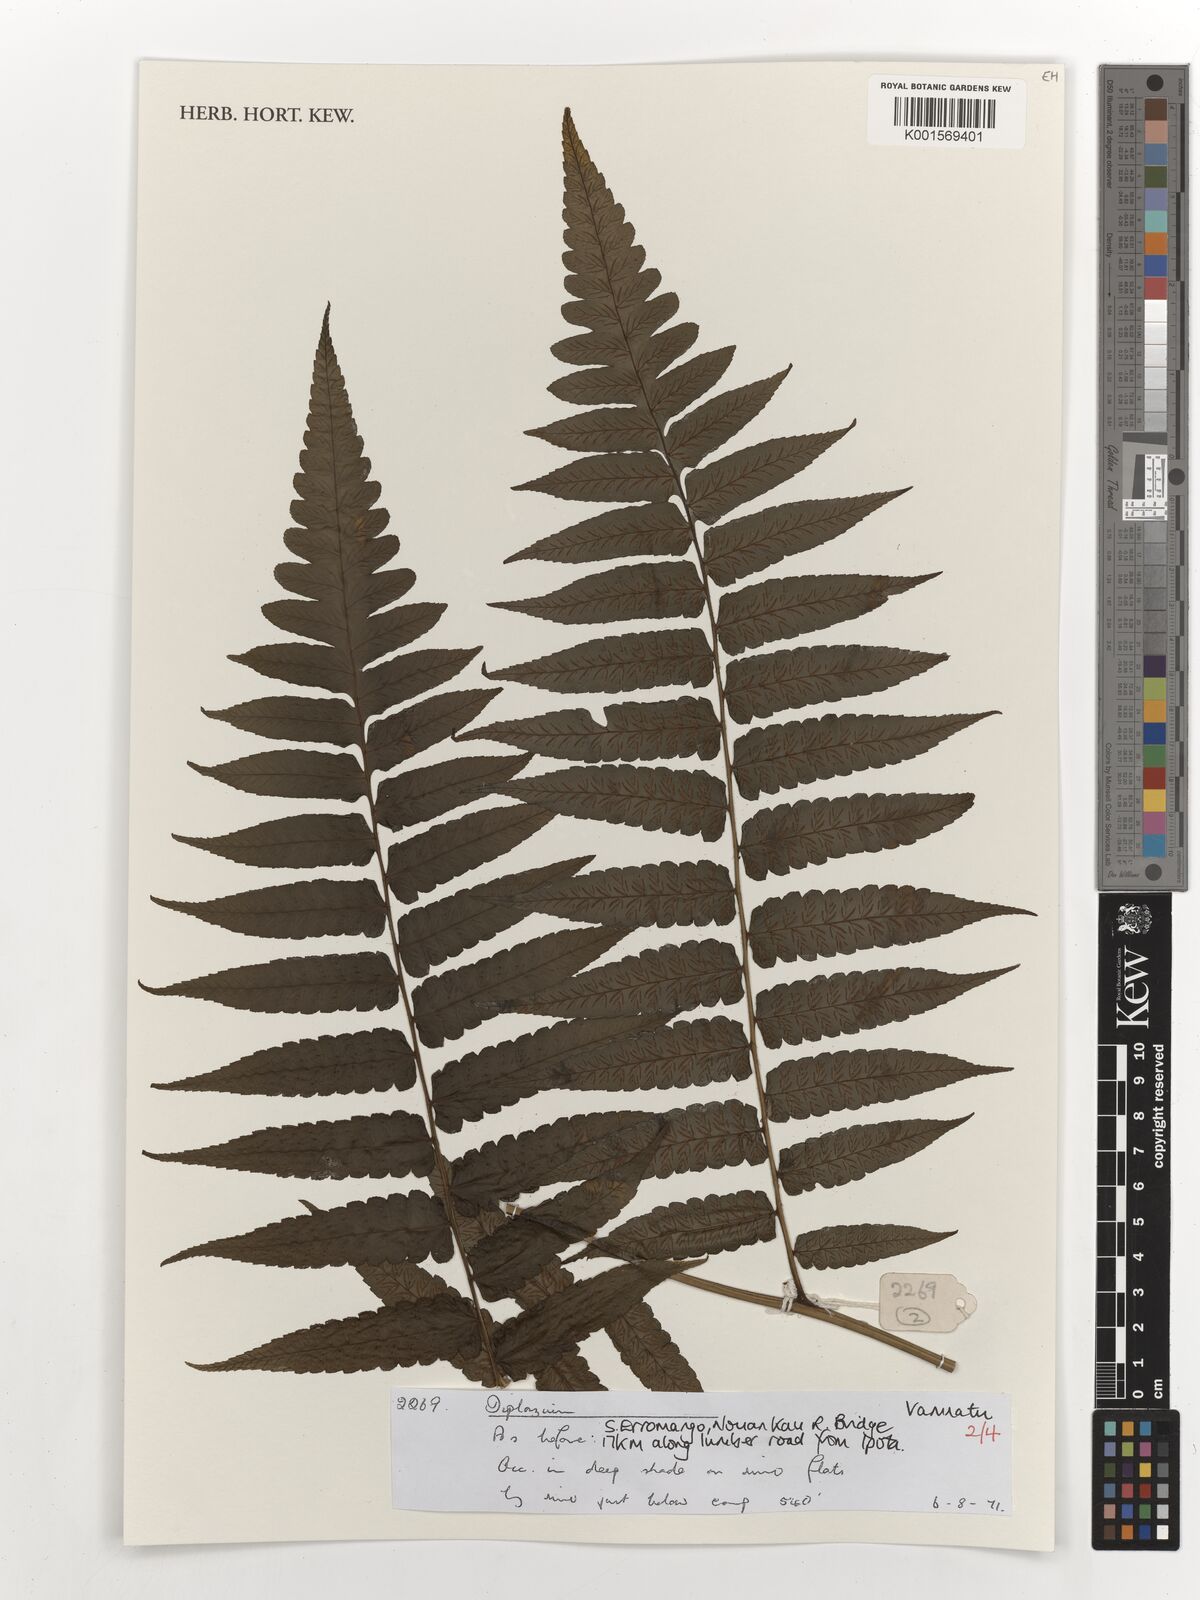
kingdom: Plantae
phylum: Tracheophyta
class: Polypodiopsida
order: Polypodiales
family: Athyriaceae
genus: Diplazium
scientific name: Diplazium
